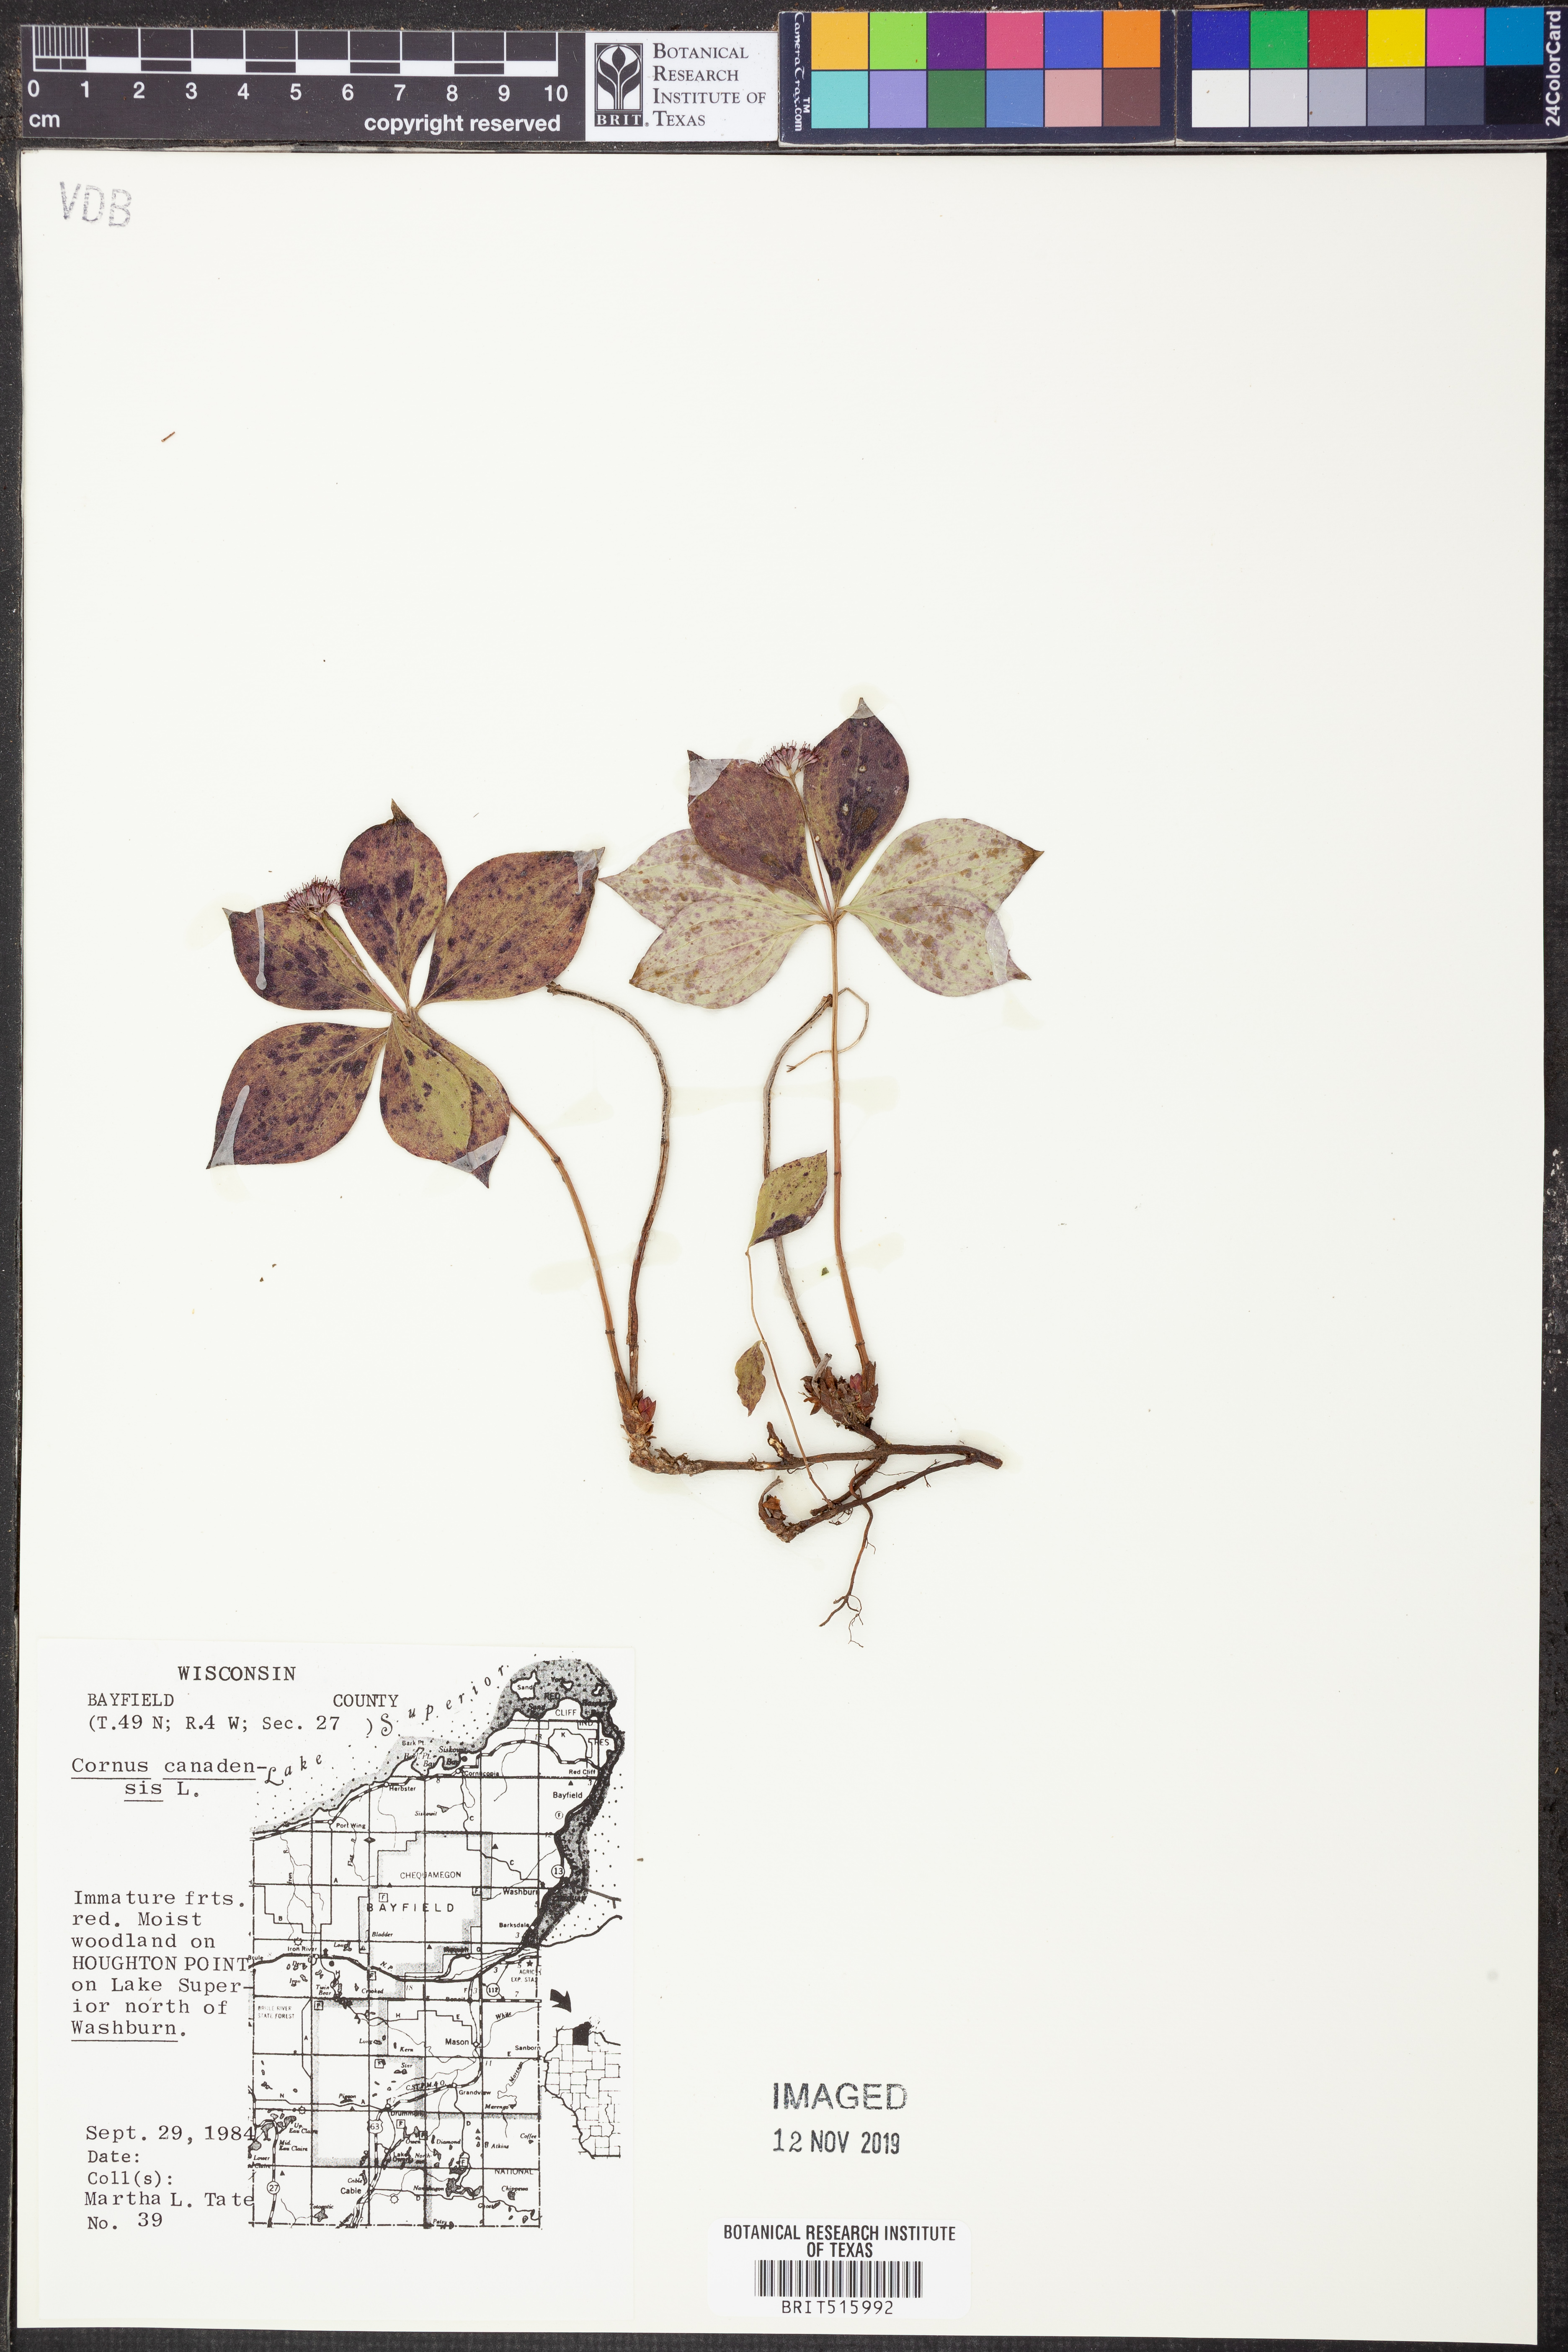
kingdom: Plantae
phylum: Tracheophyta
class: Magnoliopsida
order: Cornales
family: Cornaceae
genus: Cornus
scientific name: Cornus canadensis
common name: Creeping dogwood
